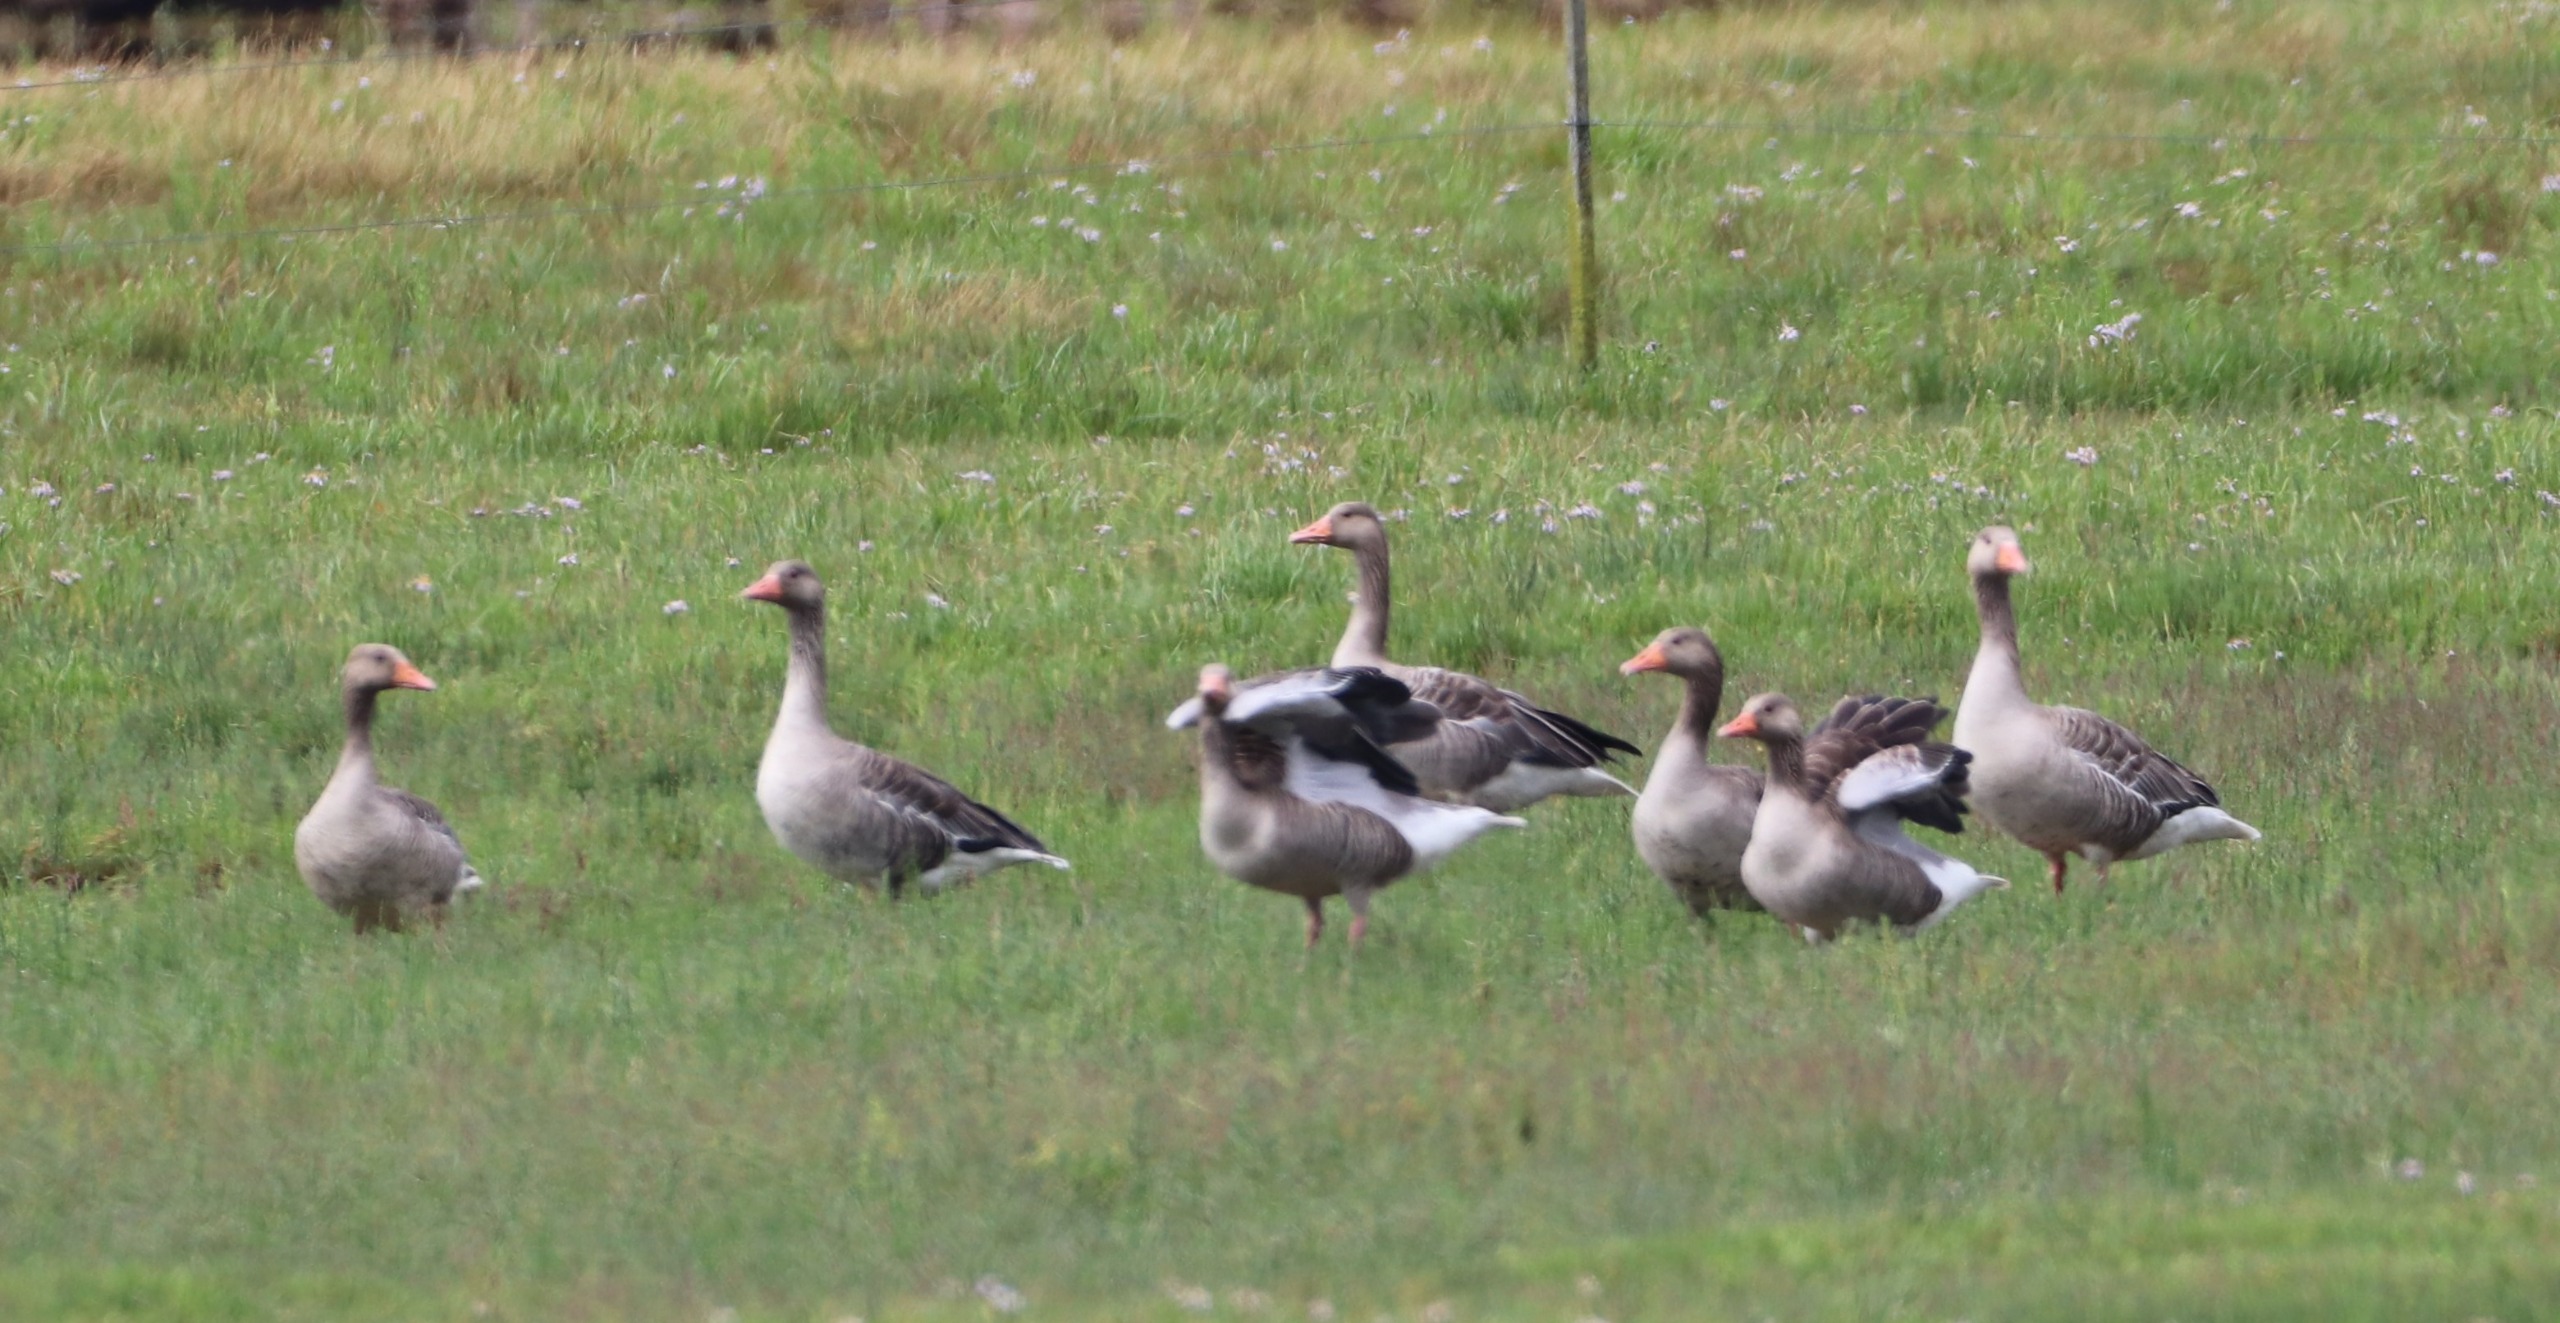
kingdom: Animalia
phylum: Chordata
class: Aves
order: Anseriformes
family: Anatidae
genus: Anser
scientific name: Anser anser
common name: Grågås
